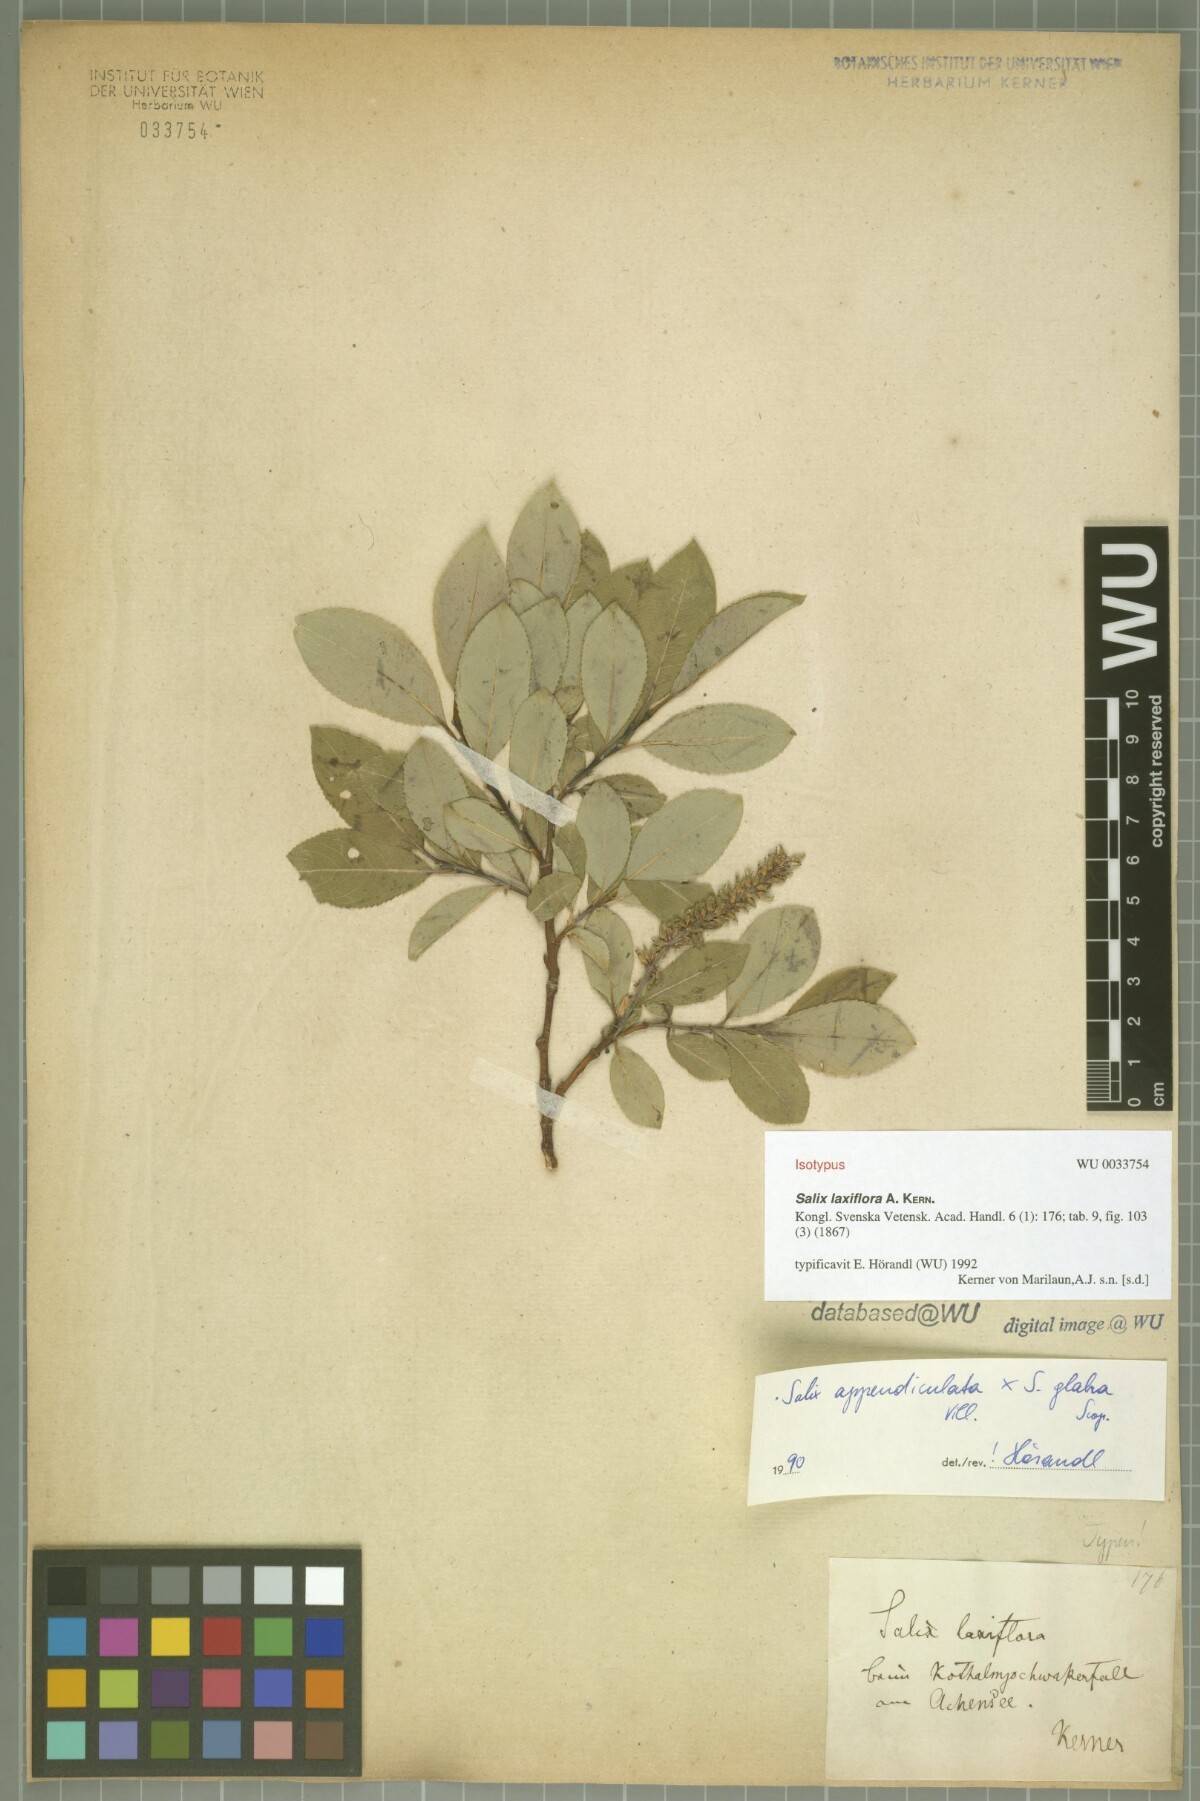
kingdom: Plantae
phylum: Tracheophyta
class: Magnoliopsida
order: Malpighiales
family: Salicaceae
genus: Salix
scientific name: Salix glabra
